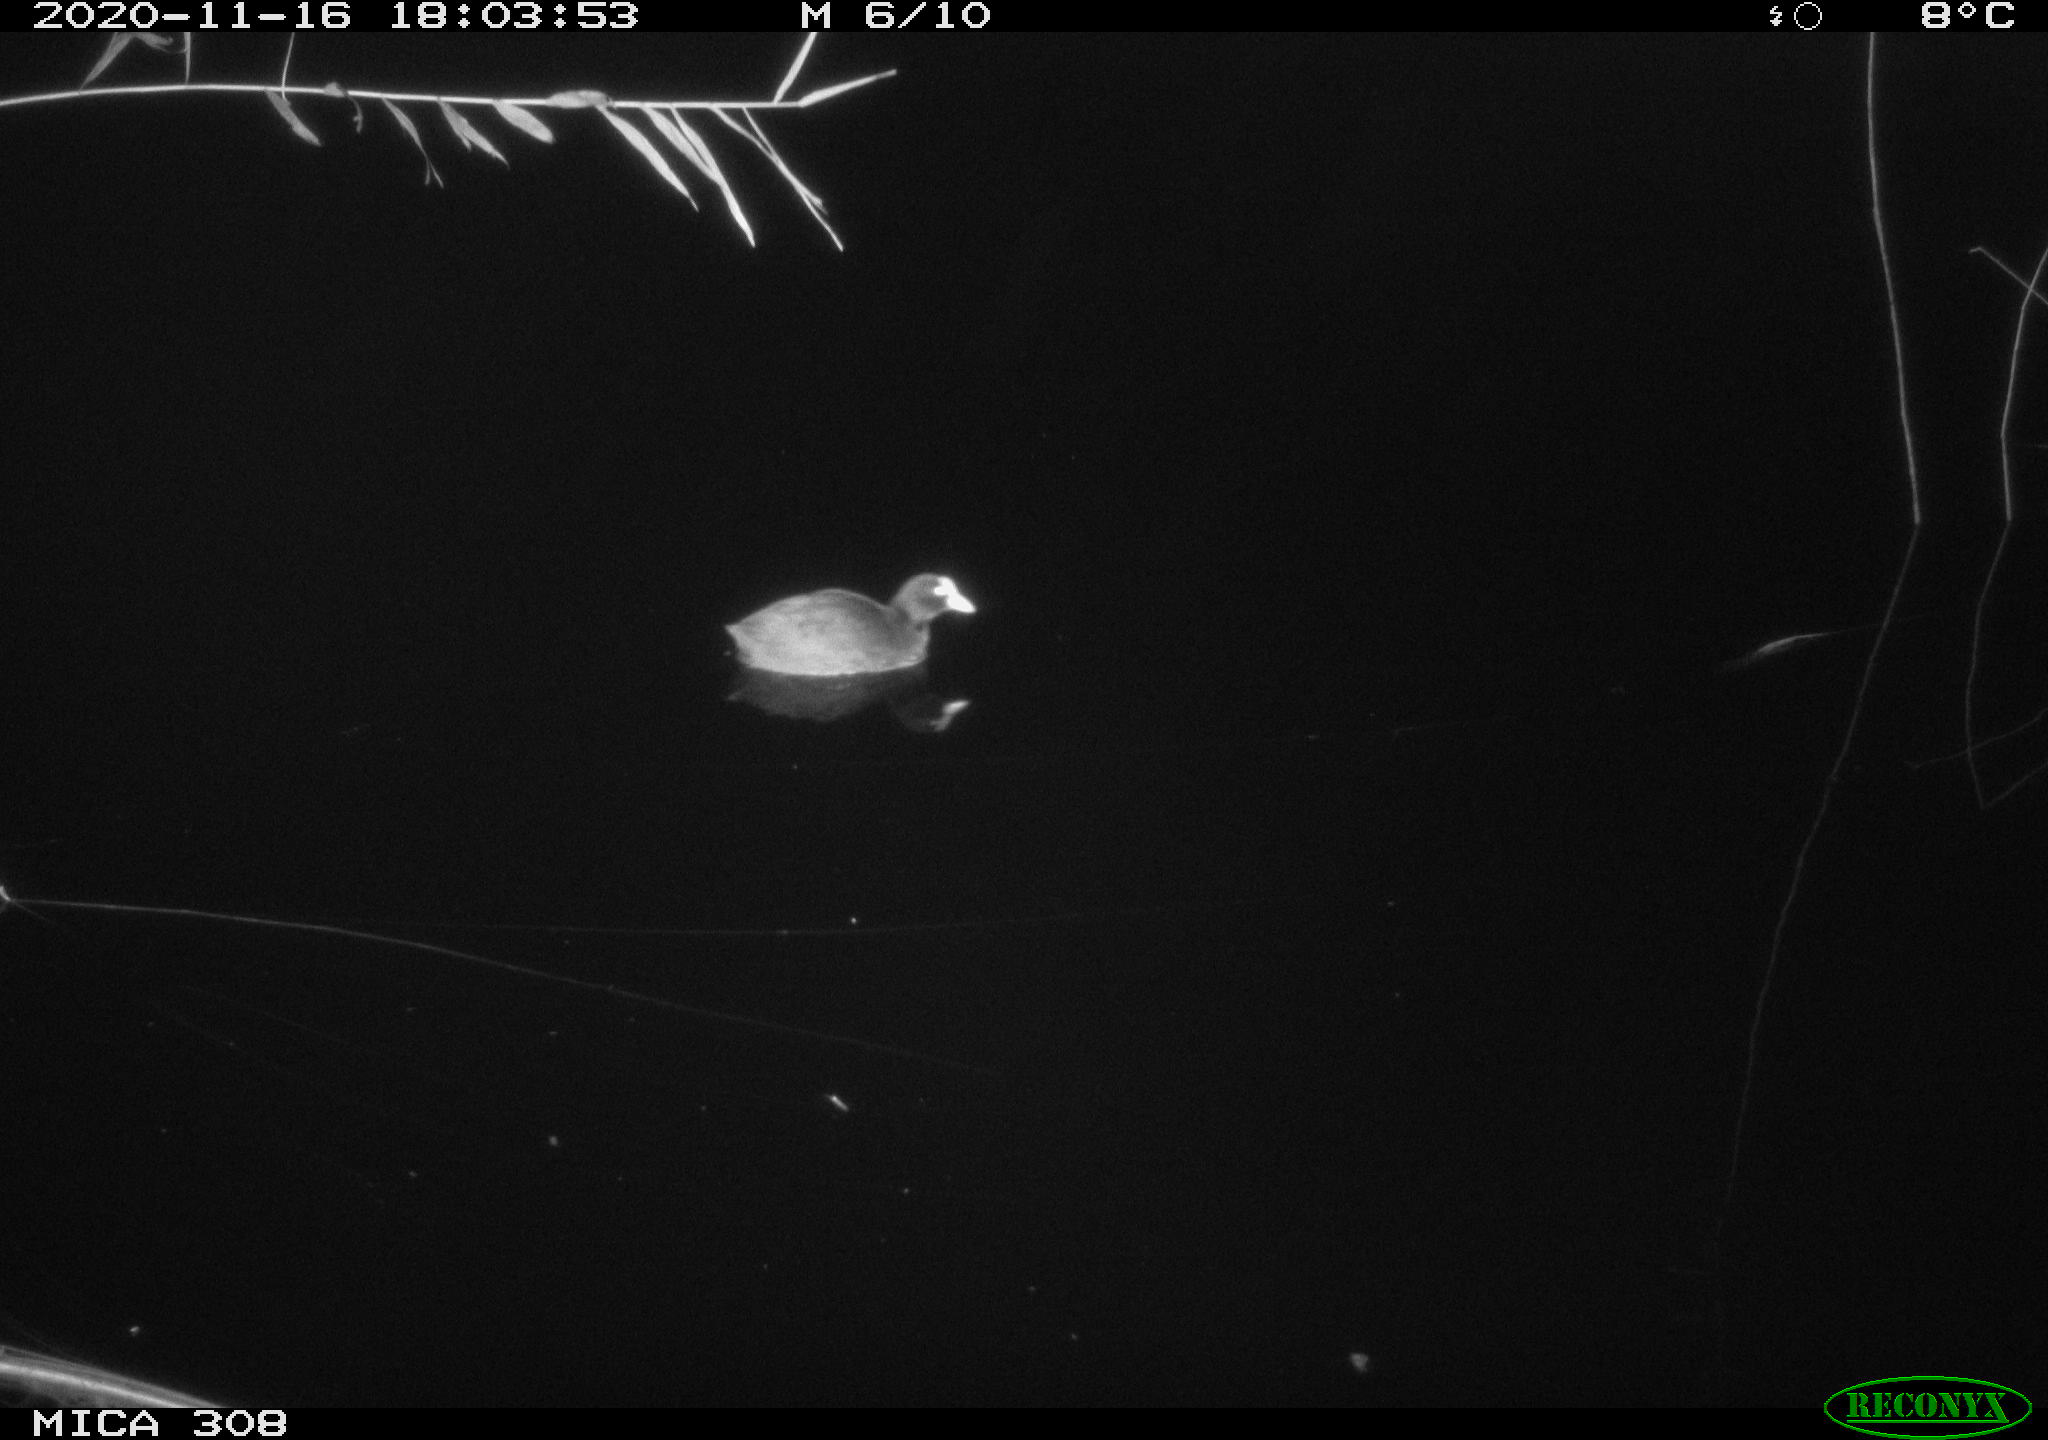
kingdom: Animalia
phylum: Chordata
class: Aves
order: Gruiformes
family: Rallidae
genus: Fulica
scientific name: Fulica atra
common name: Eurasian coot
